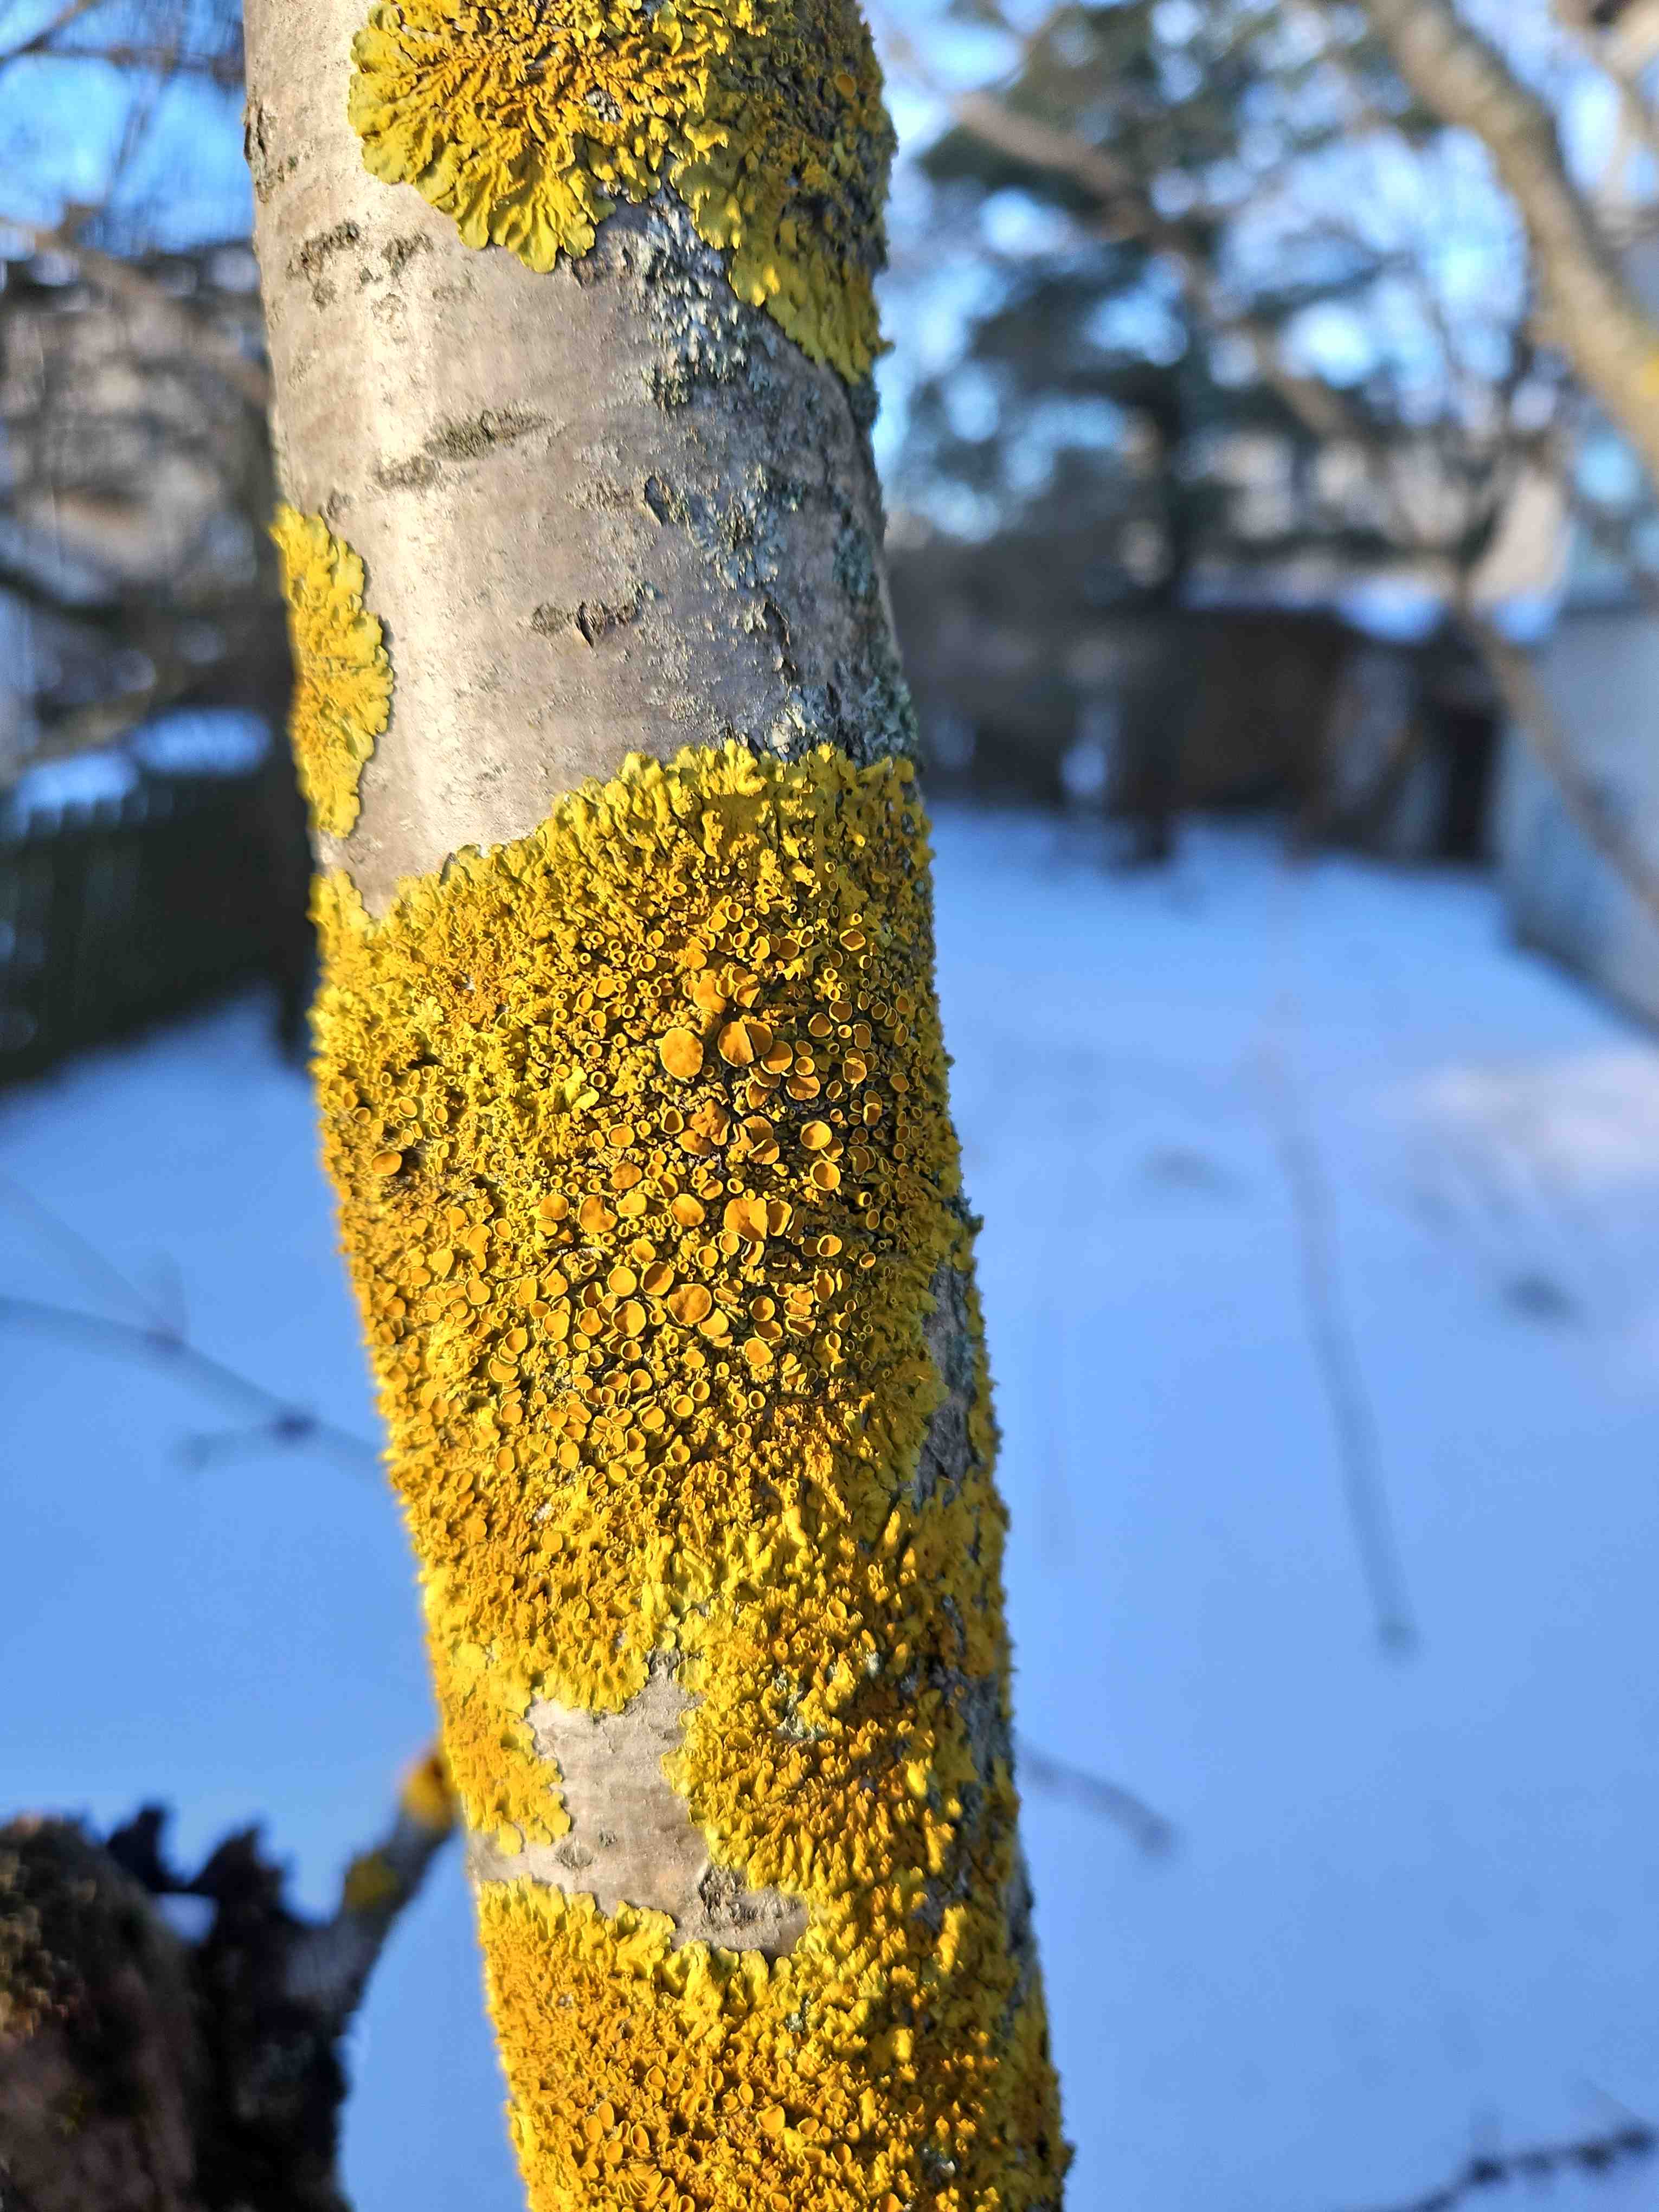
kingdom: Fungi
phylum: Ascomycota
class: Lecanoromycetes
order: Teloschistales
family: Teloschistaceae
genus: Xanthoria
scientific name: Xanthoria parietina
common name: almindelig væggelav
